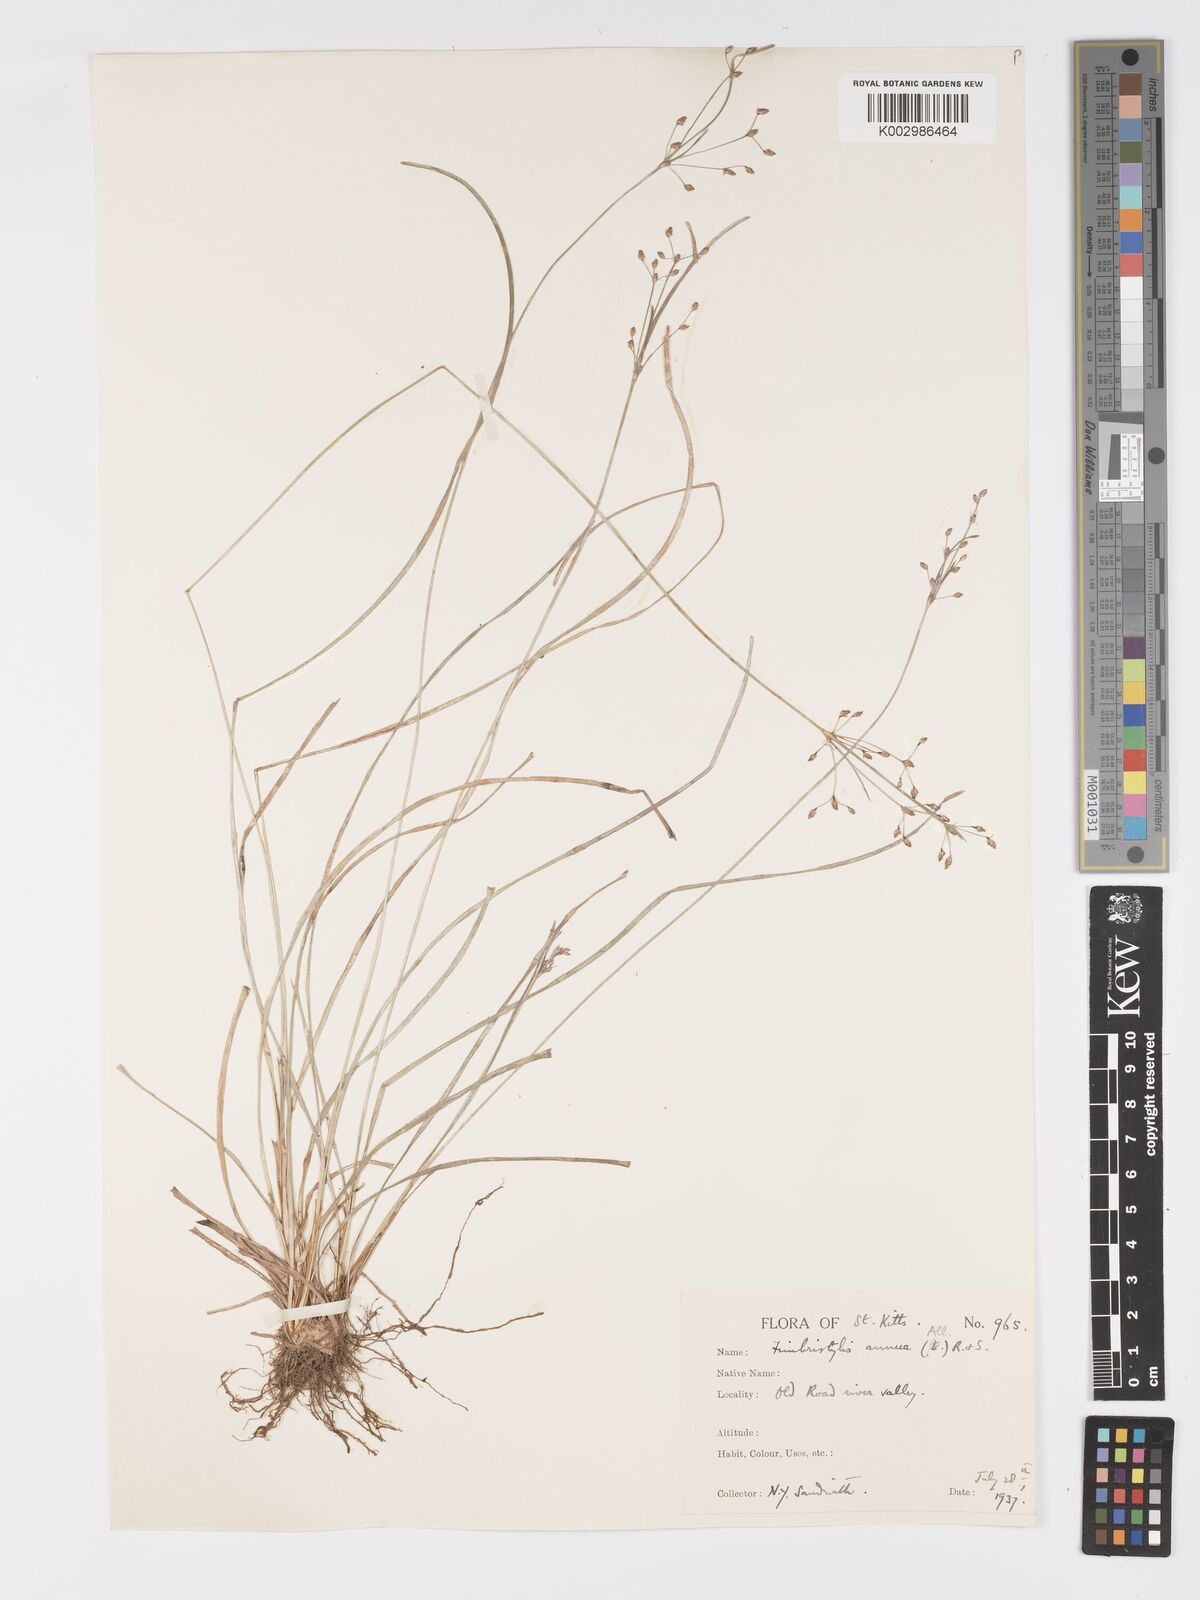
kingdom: Plantae
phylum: Tracheophyta
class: Liliopsida
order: Poales
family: Cyperaceae
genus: Fimbristylis
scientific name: Fimbristylis dichotoma
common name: Forked fimbry
